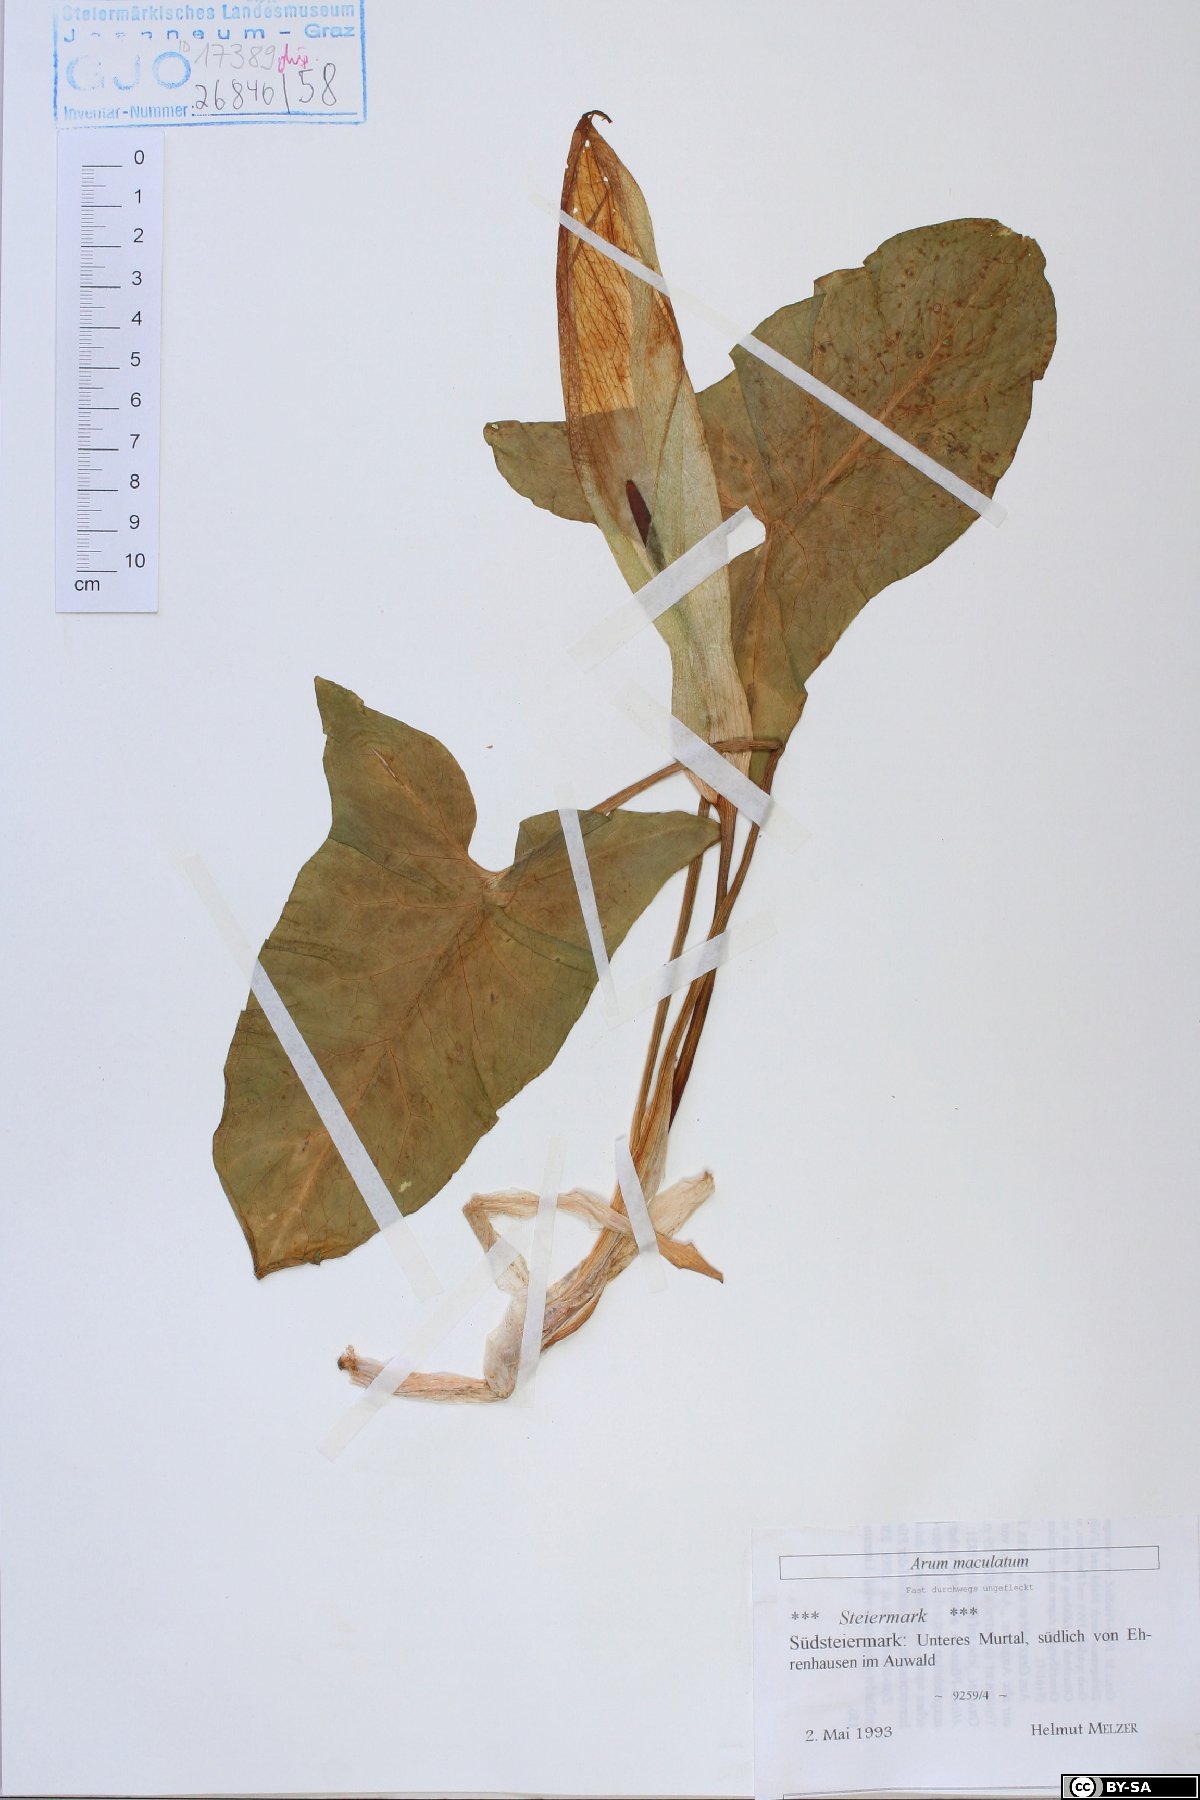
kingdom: Plantae
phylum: Tracheophyta
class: Liliopsida
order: Alismatales
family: Araceae
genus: Arum
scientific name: Arum maculatum
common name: Lords-and-ladies
